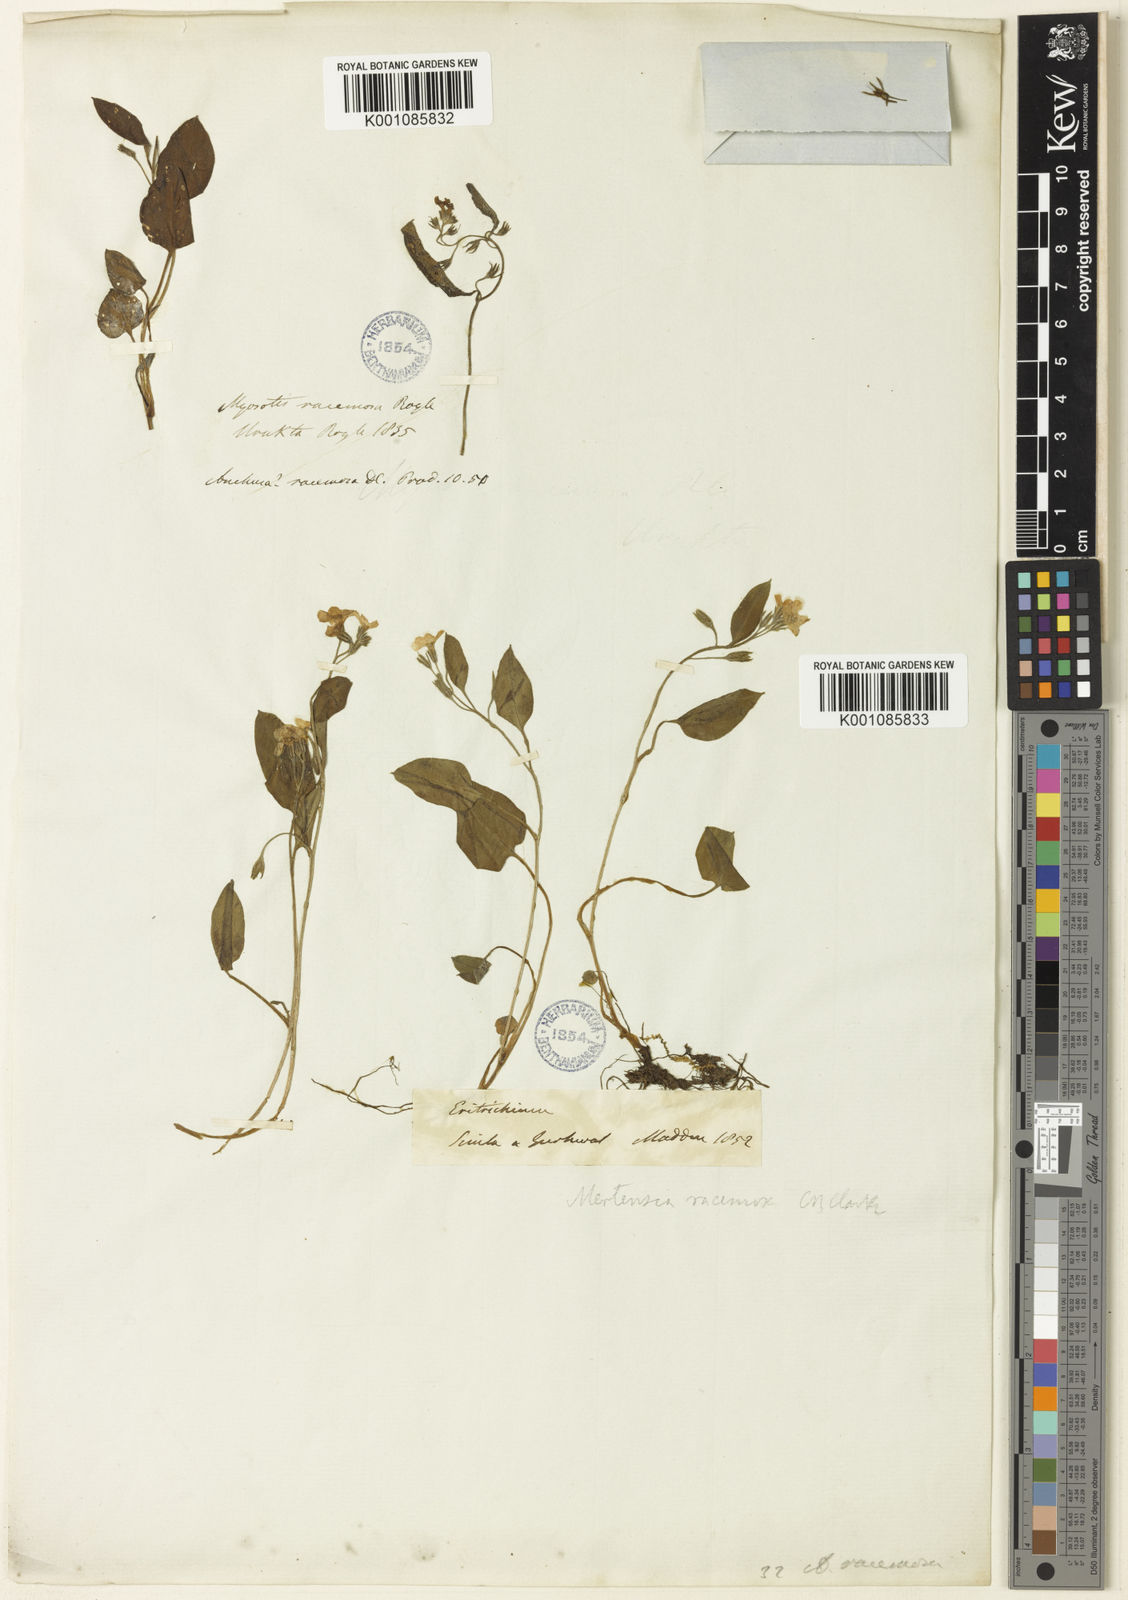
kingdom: Plantae
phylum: Tracheophyta
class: Magnoliopsida
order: Boraginales
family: Boraginaceae
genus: Decalepidanthus
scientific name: Decalepidanthus racemosus
